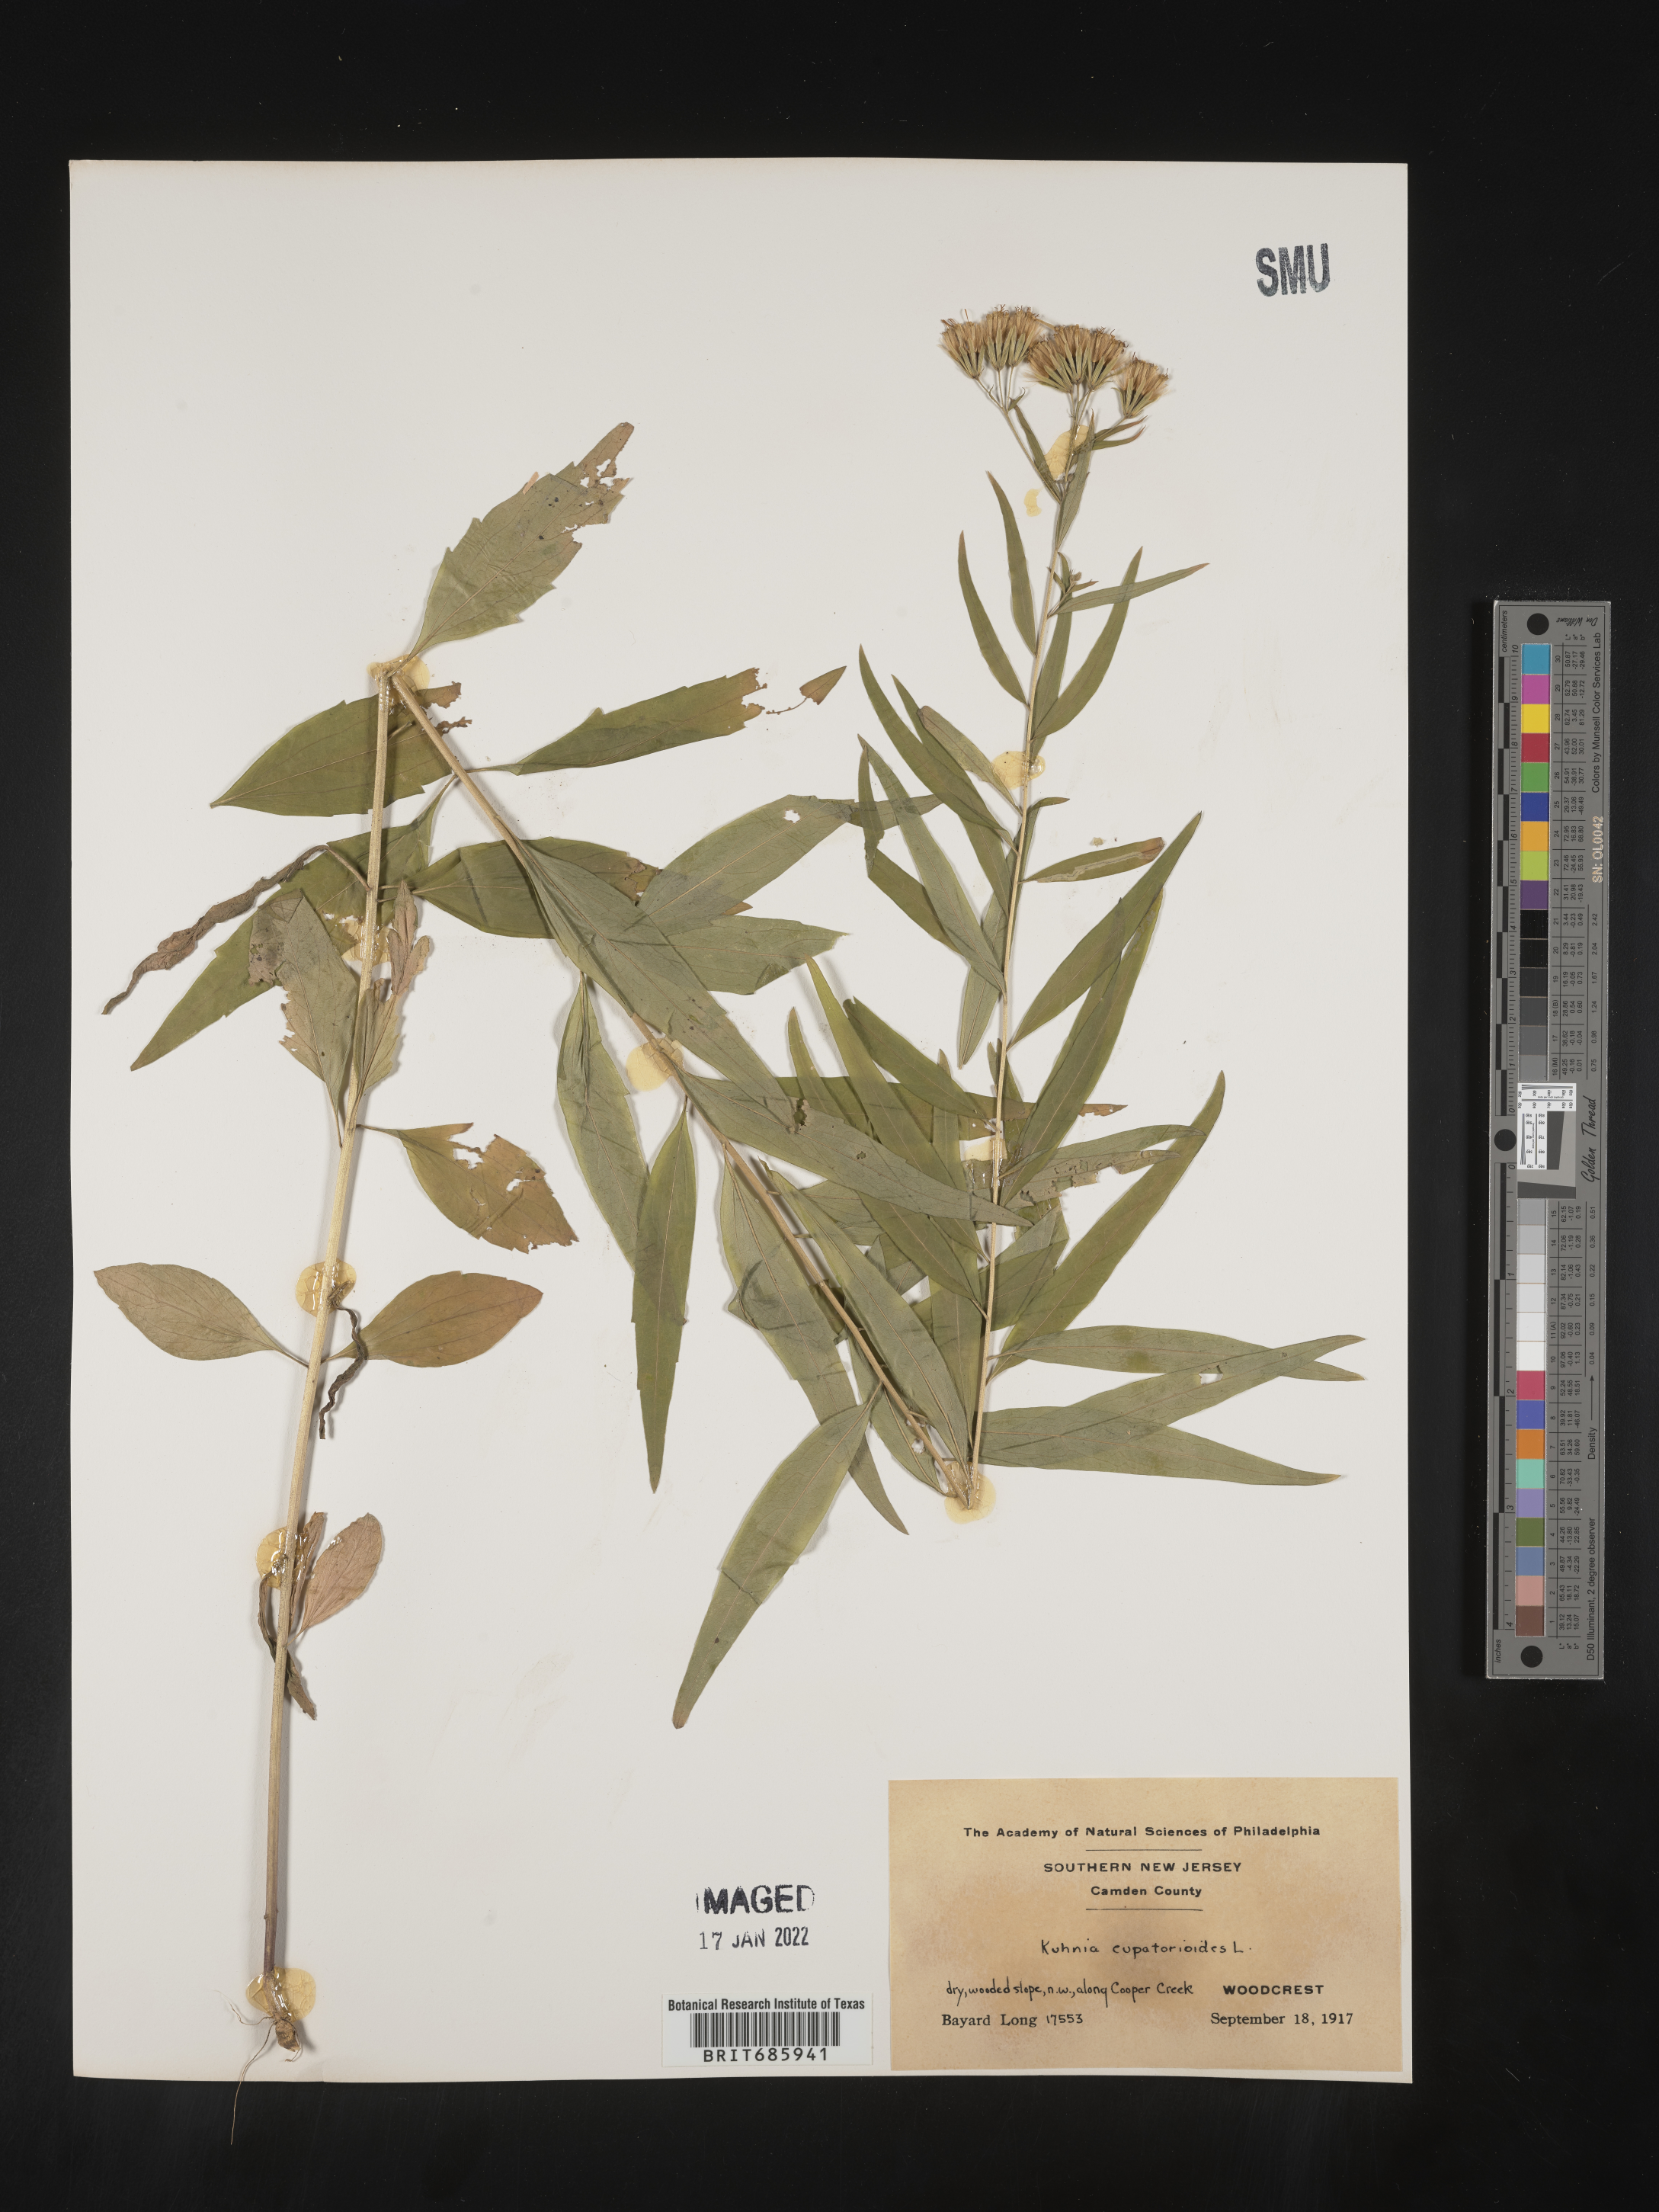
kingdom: Plantae
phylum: Tracheophyta
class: Magnoliopsida
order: Asterales
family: Asteraceae
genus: Brickellia
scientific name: Brickellia eupatorioides
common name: False boneset
